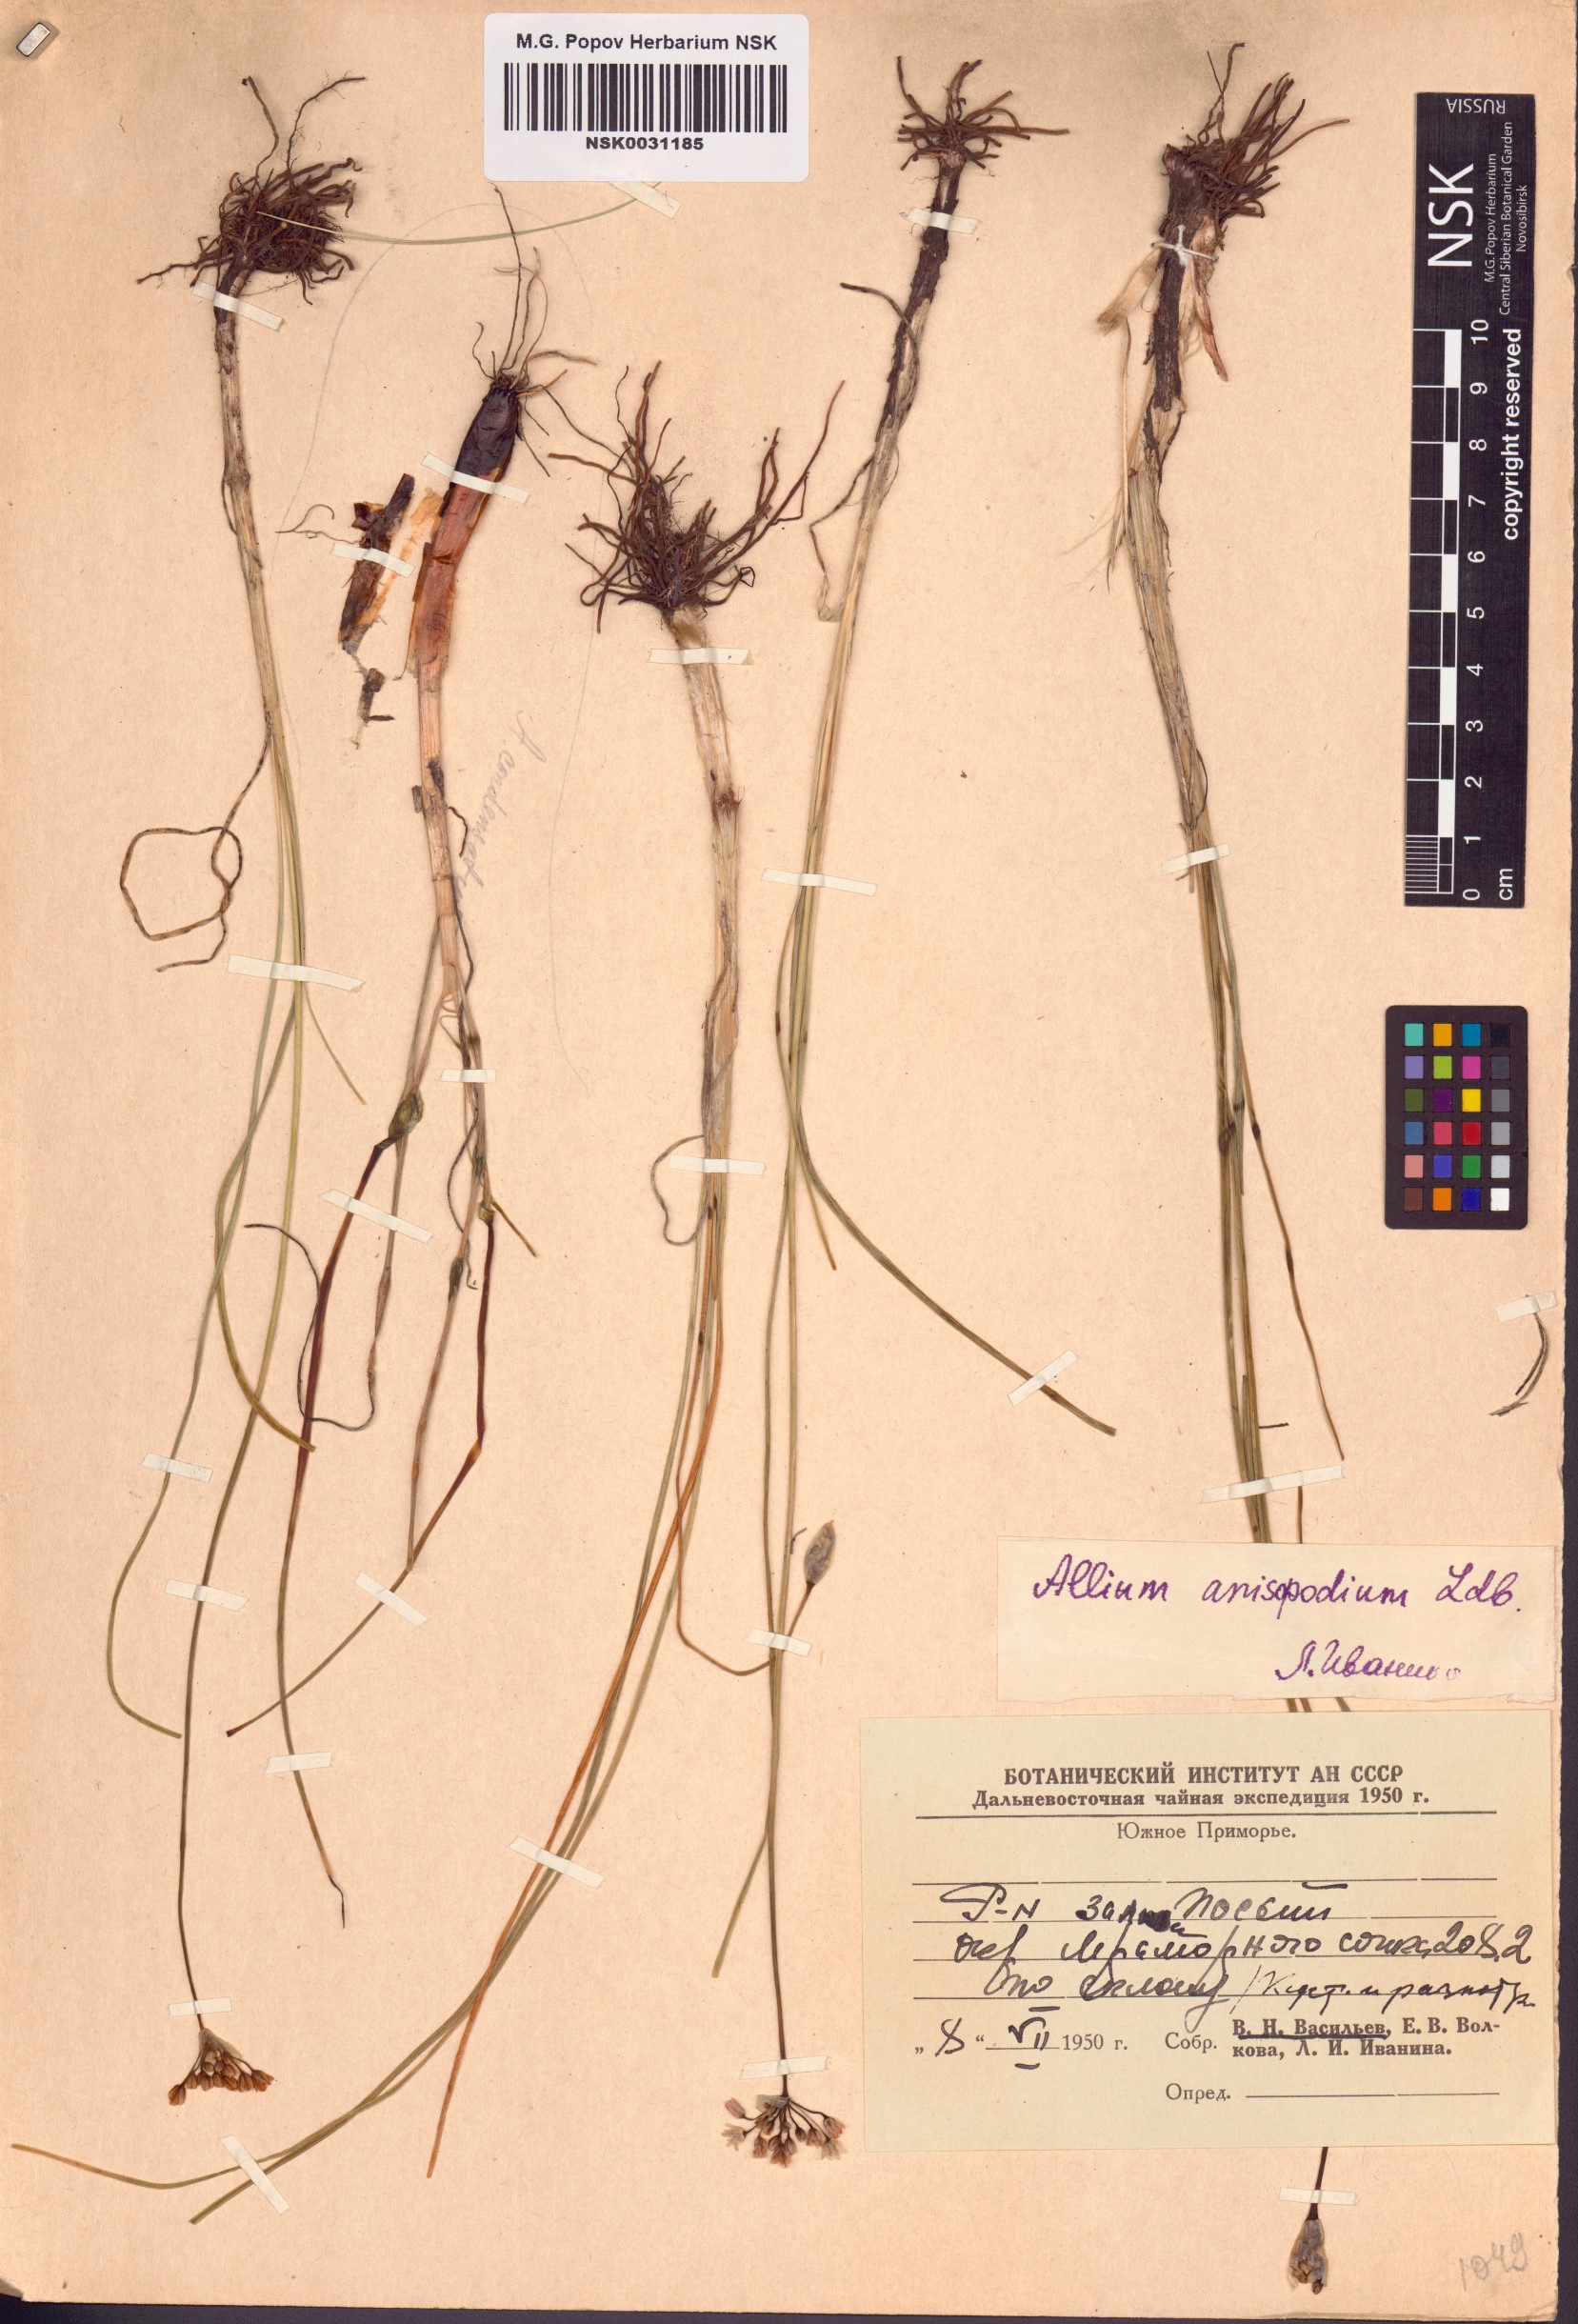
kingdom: Plantae
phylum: Tracheophyta
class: Liliopsida
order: Asparagales
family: Amaryllidaceae
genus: Allium
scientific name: Allium anisopodium
